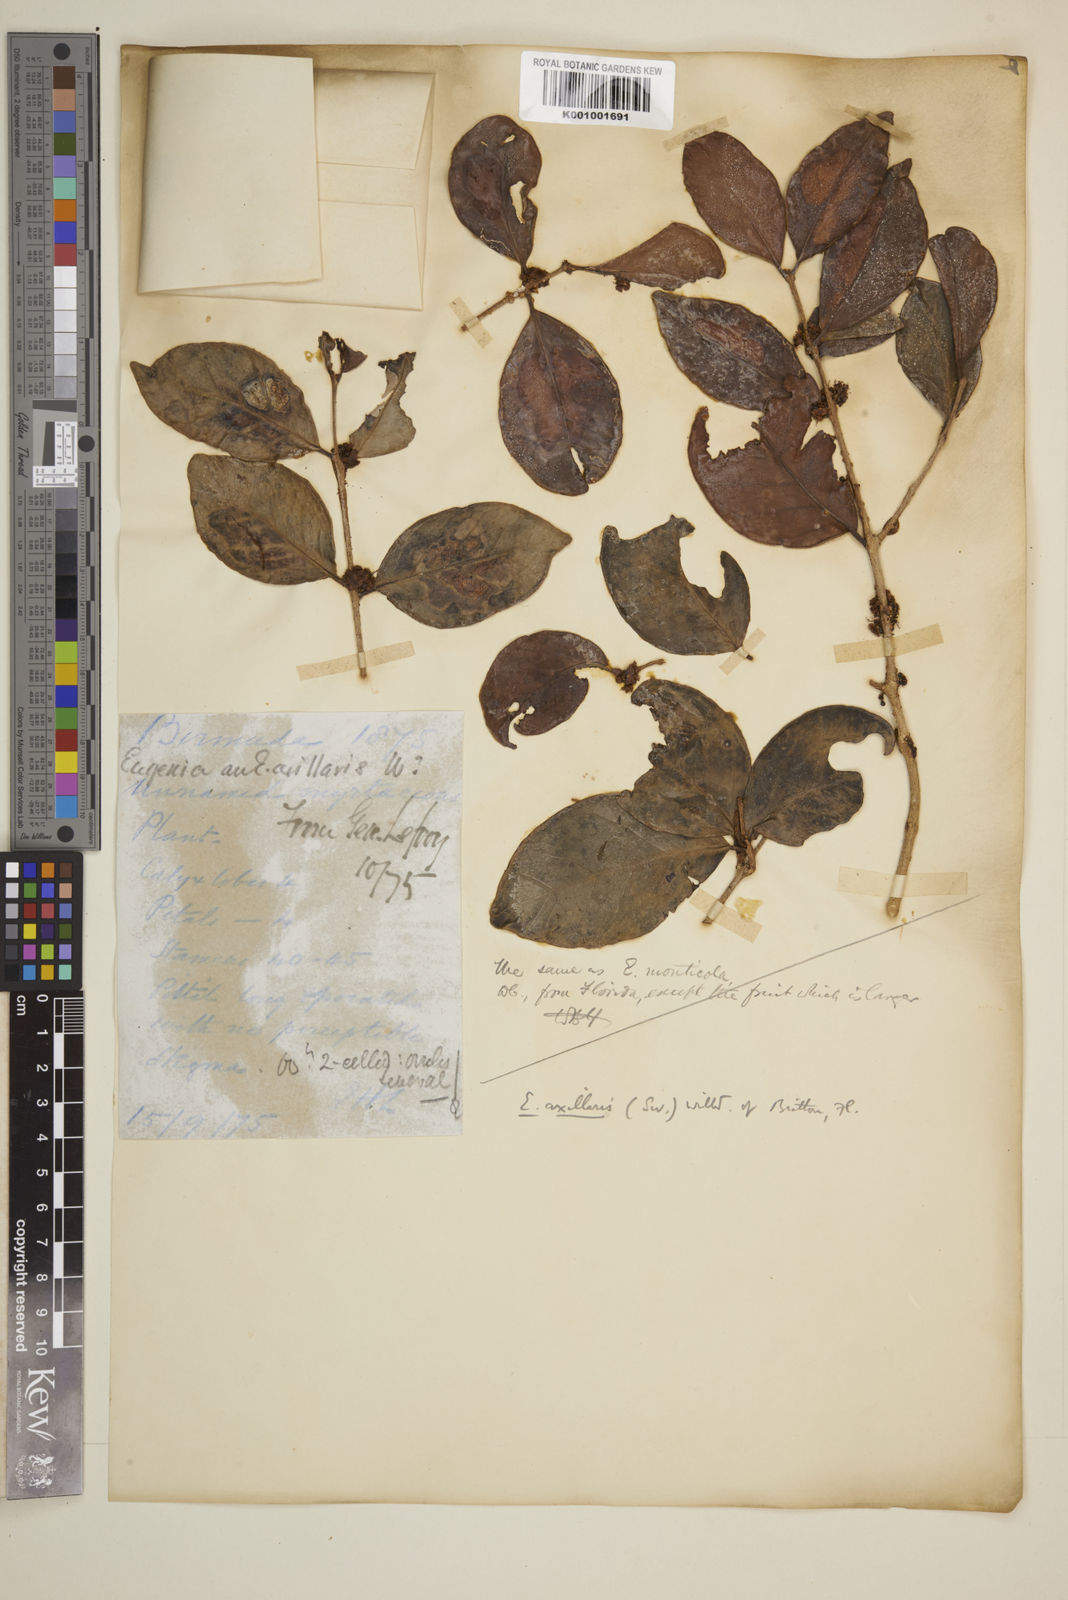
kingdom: Plantae
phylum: Tracheophyta
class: Magnoliopsida
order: Myrtales
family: Myrtaceae
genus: Eugenia
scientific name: Eugenia axillaris
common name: Choaky berry
